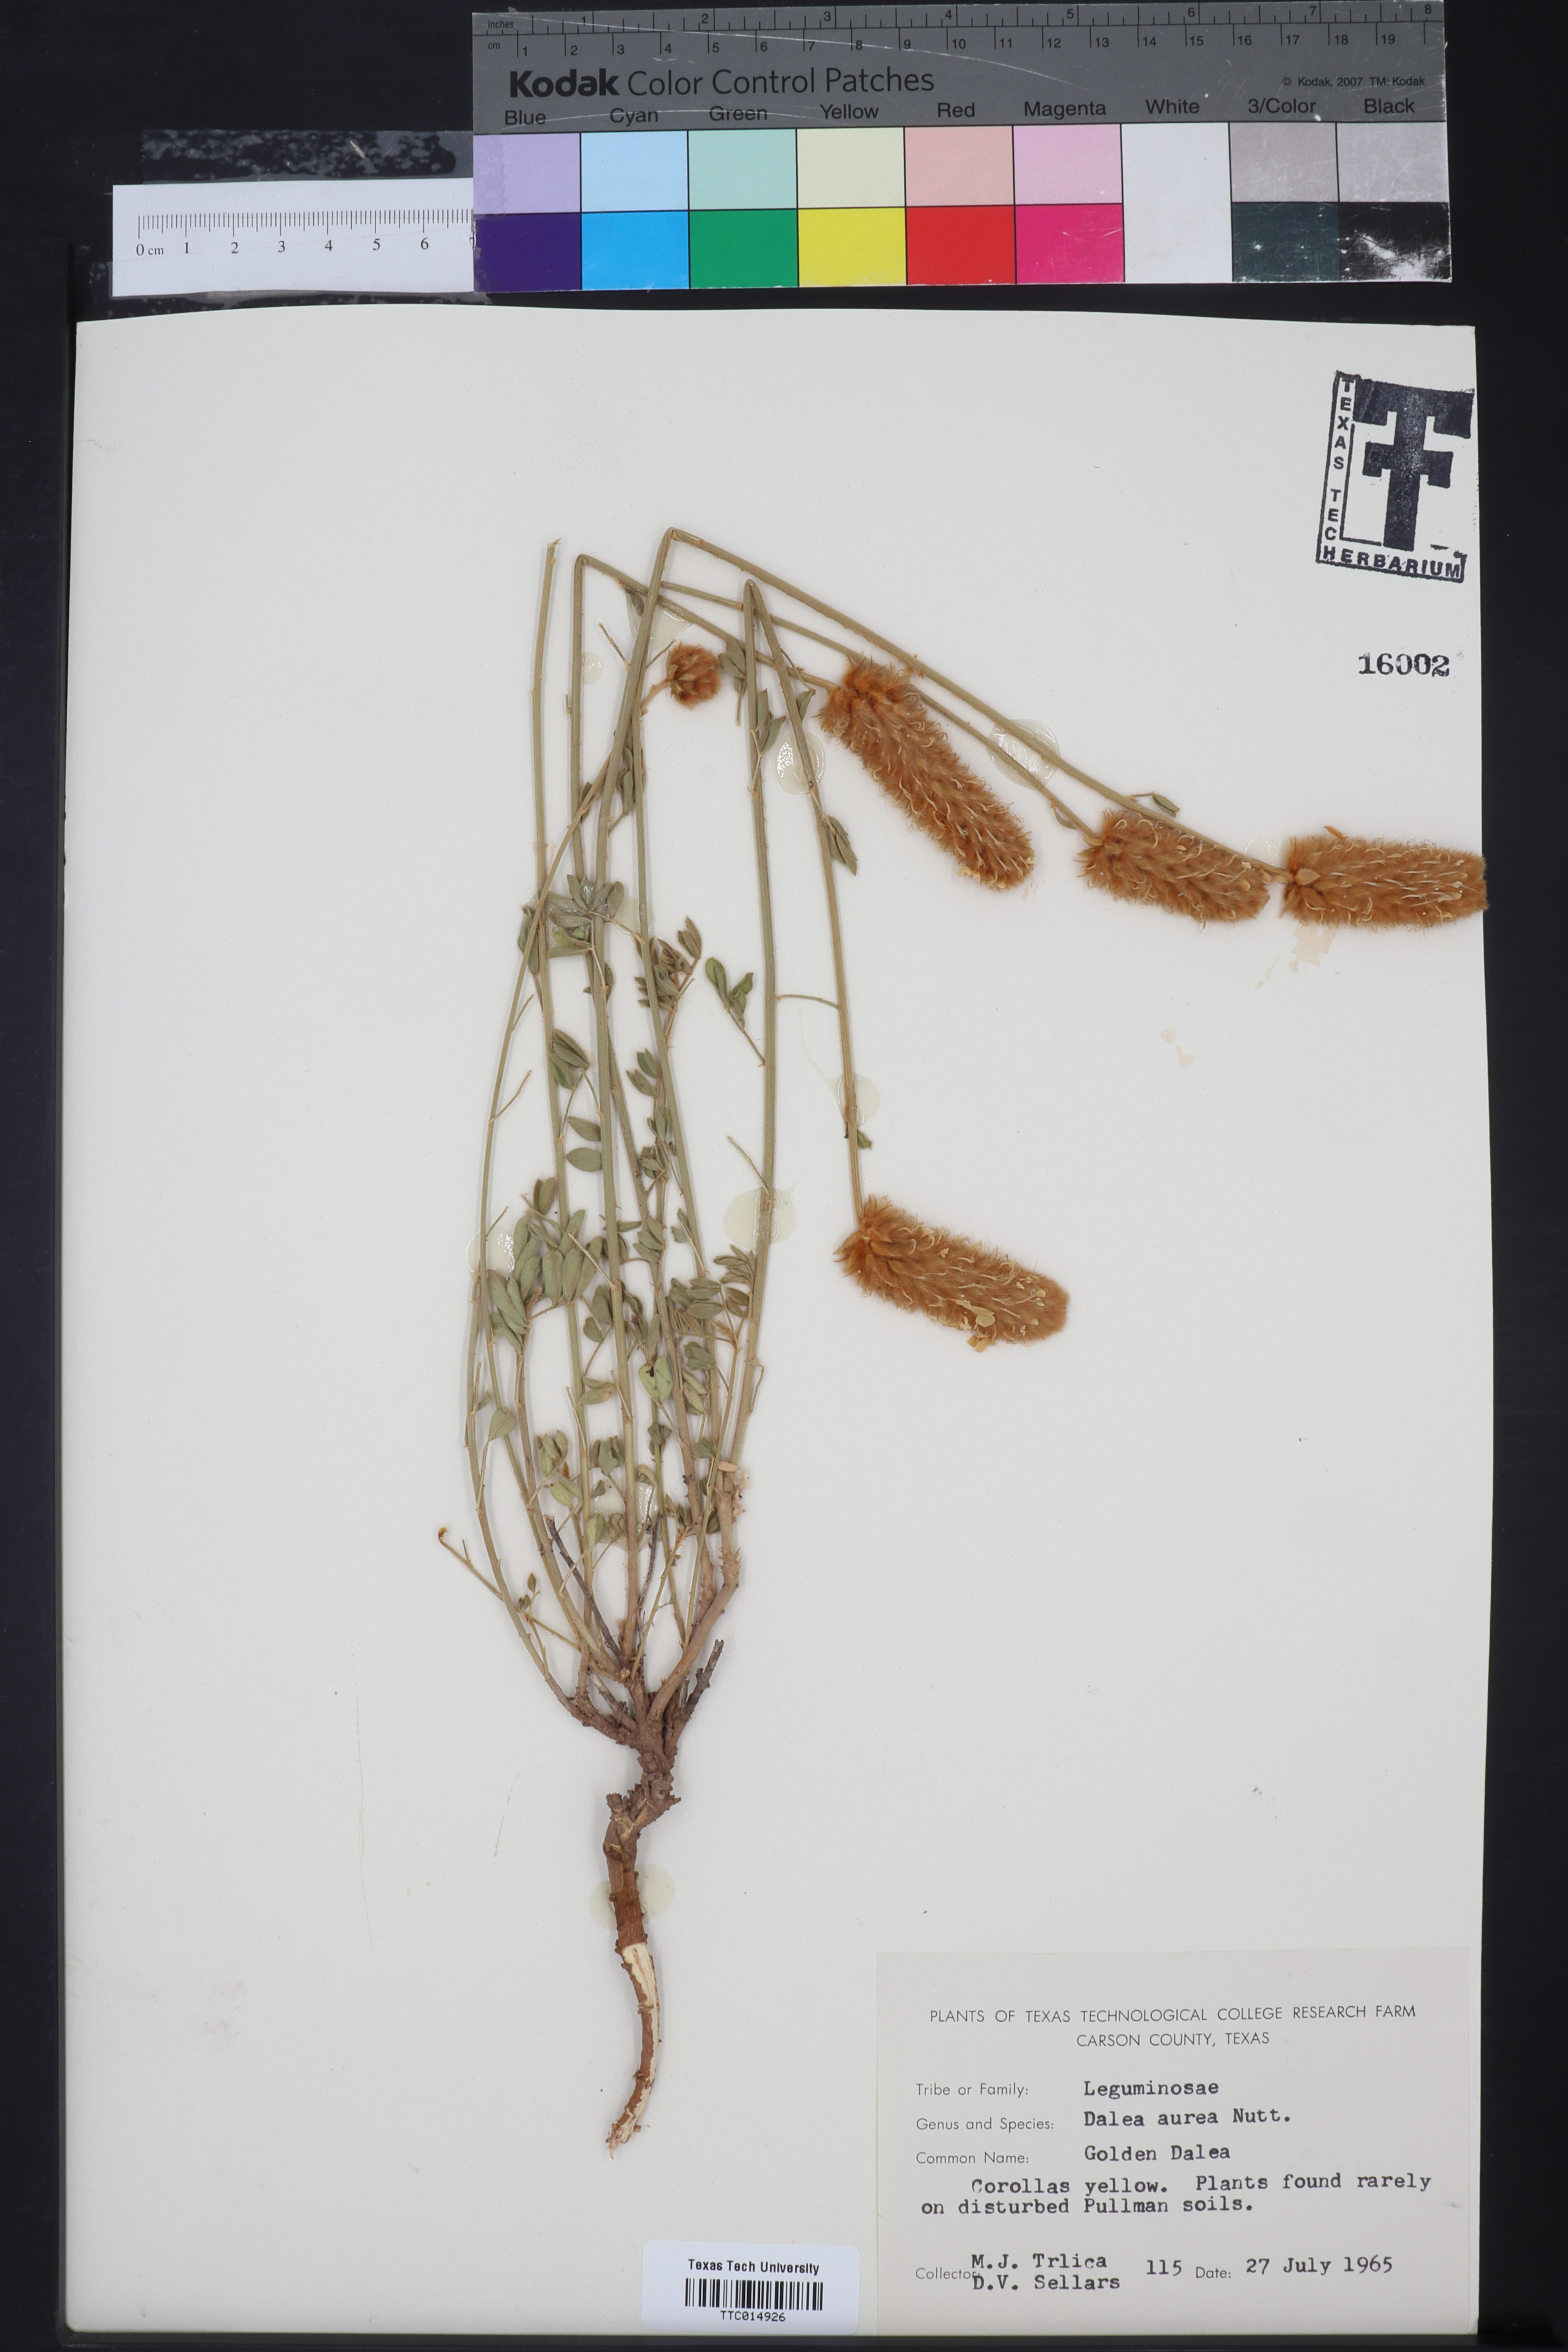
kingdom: Plantae
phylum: Tracheophyta
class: Magnoliopsida
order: Fabales
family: Fabaceae
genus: Dalea
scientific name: Dalea aurea
